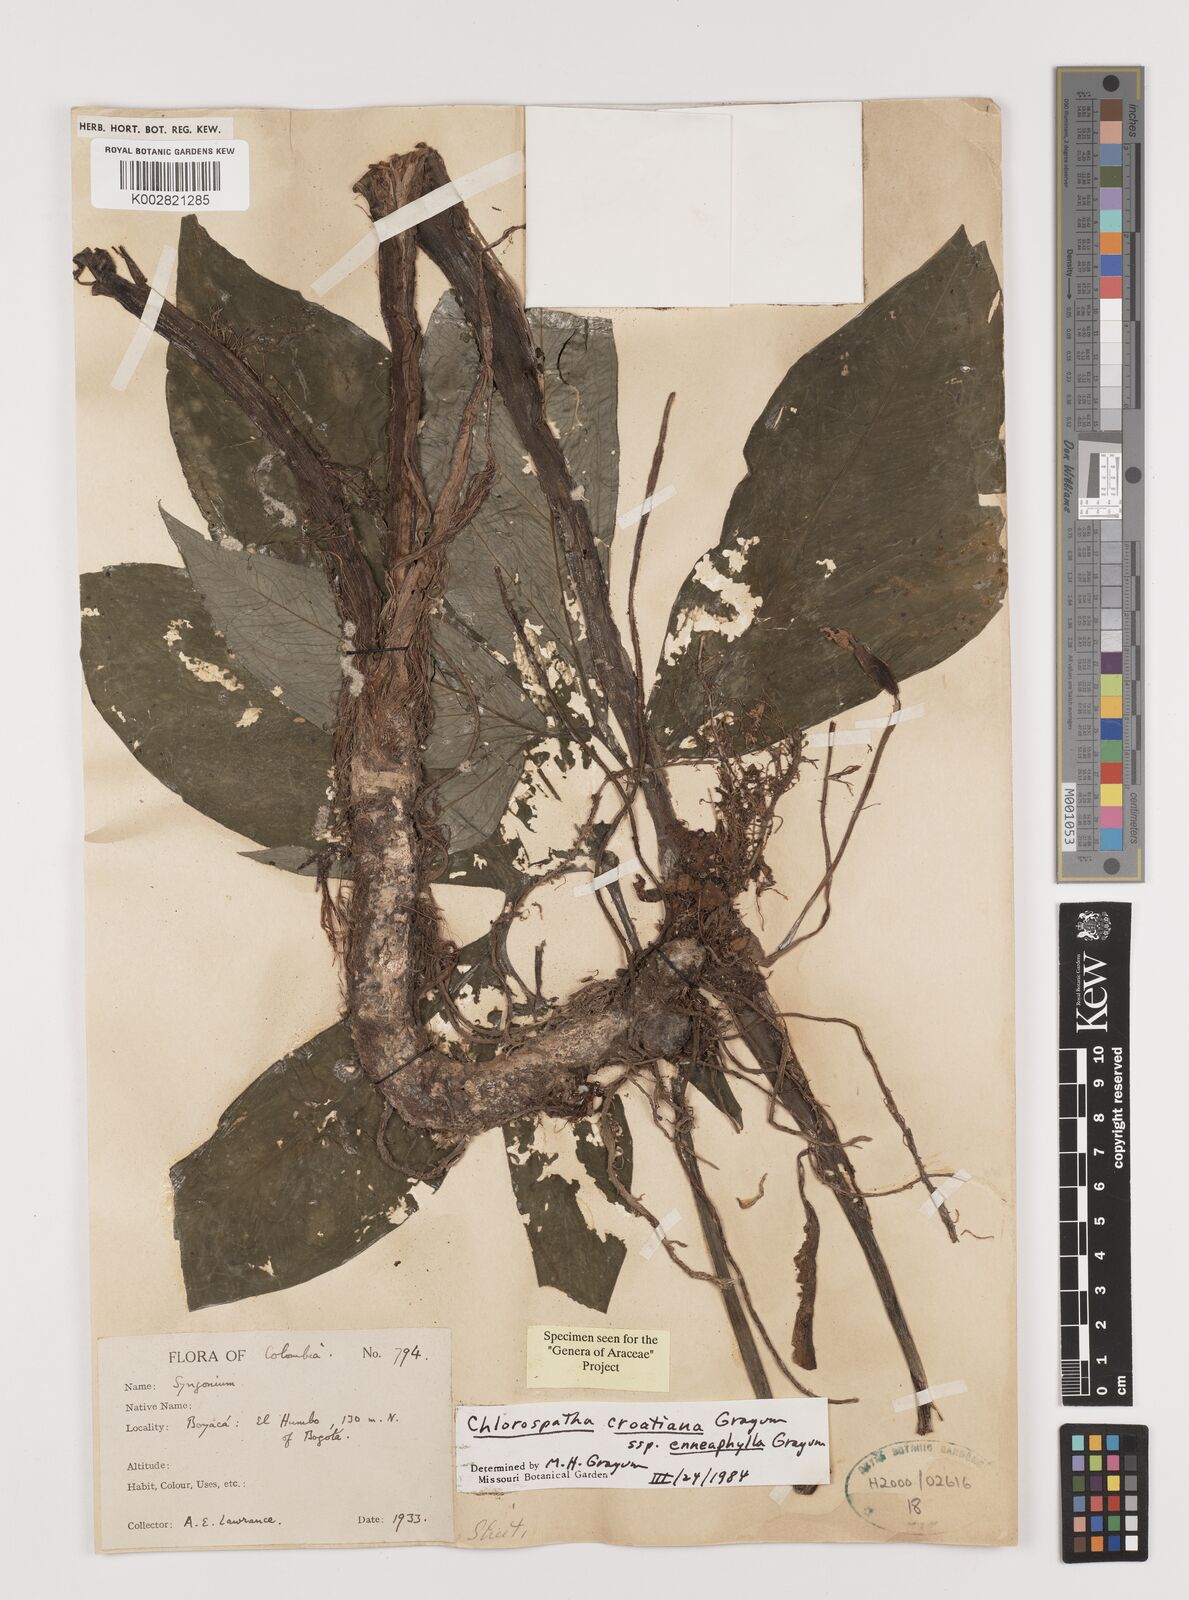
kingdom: Plantae
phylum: Tracheophyta
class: Liliopsida
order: Alismatales
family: Araceae
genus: Chlorospatha
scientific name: Chlorospatha croatiana
